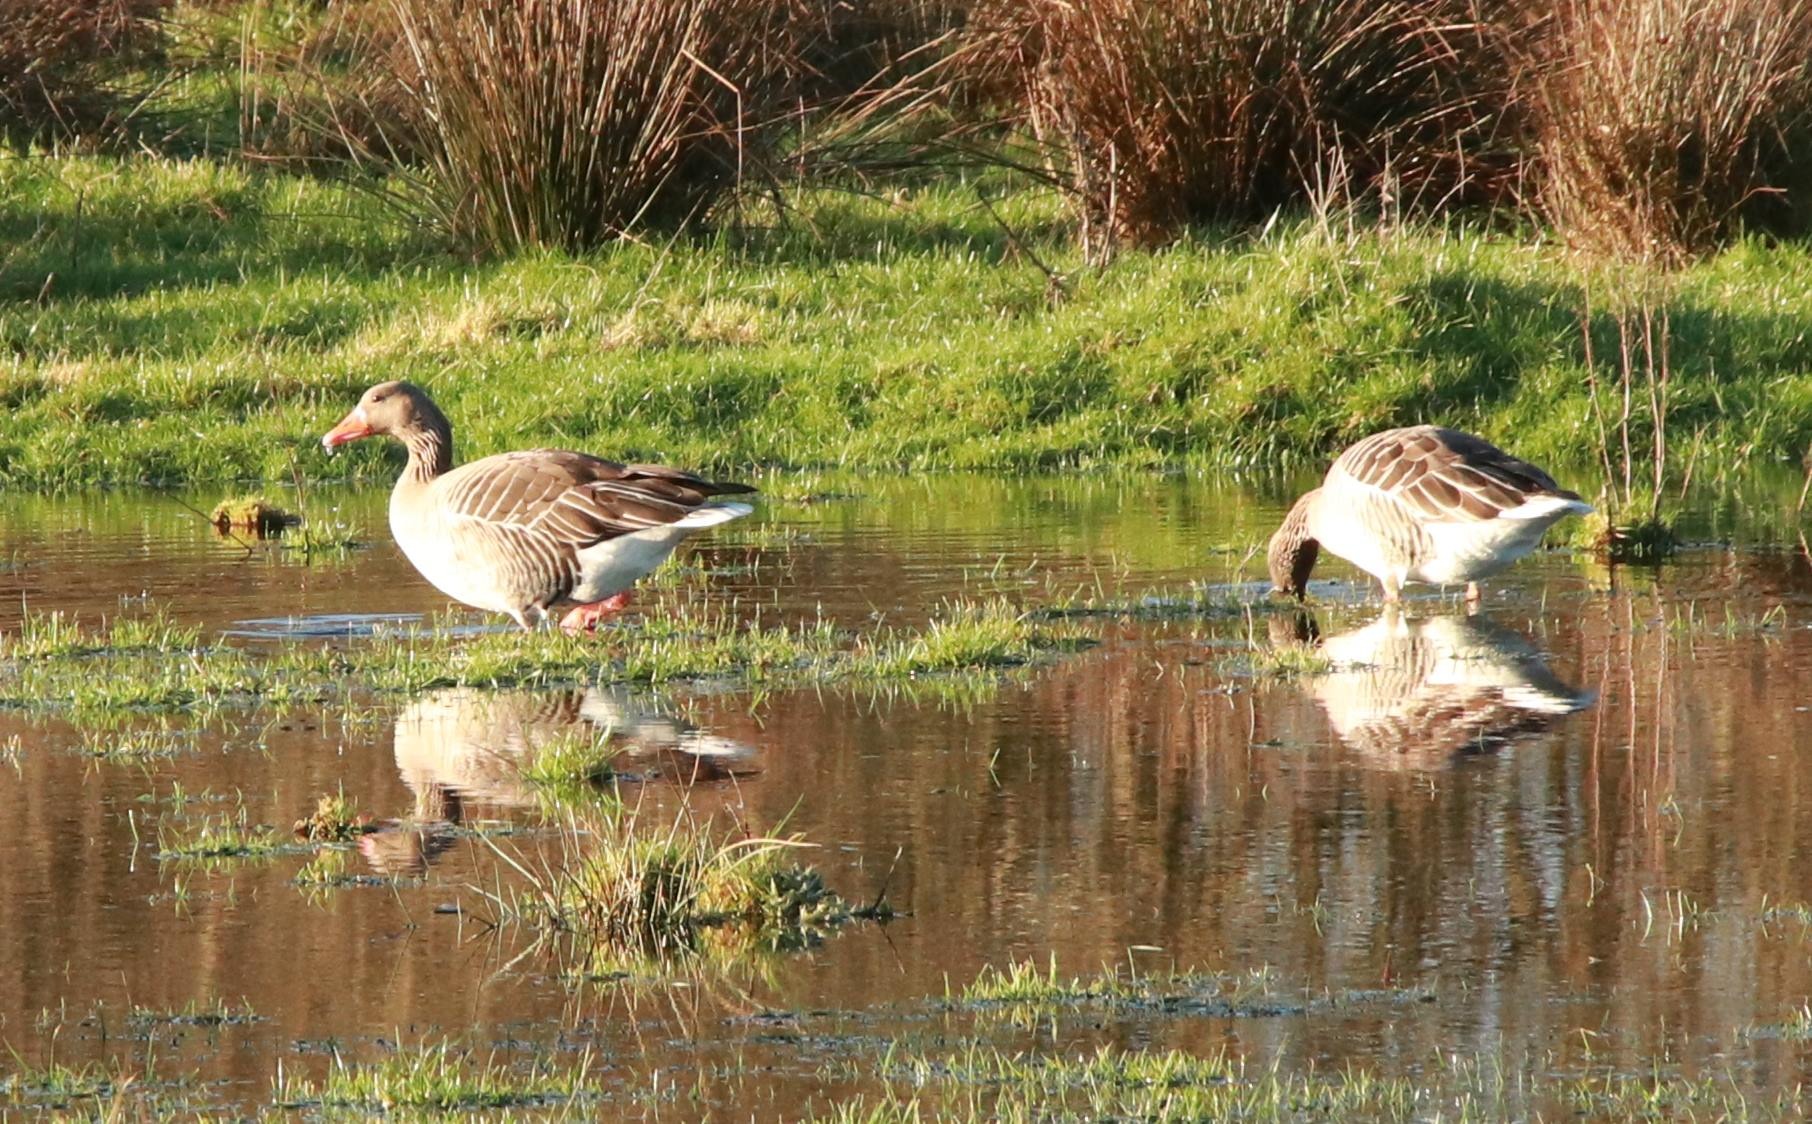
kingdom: Animalia
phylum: Chordata
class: Aves
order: Anseriformes
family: Anatidae
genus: Anser
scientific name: Anser anser
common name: Grågås
